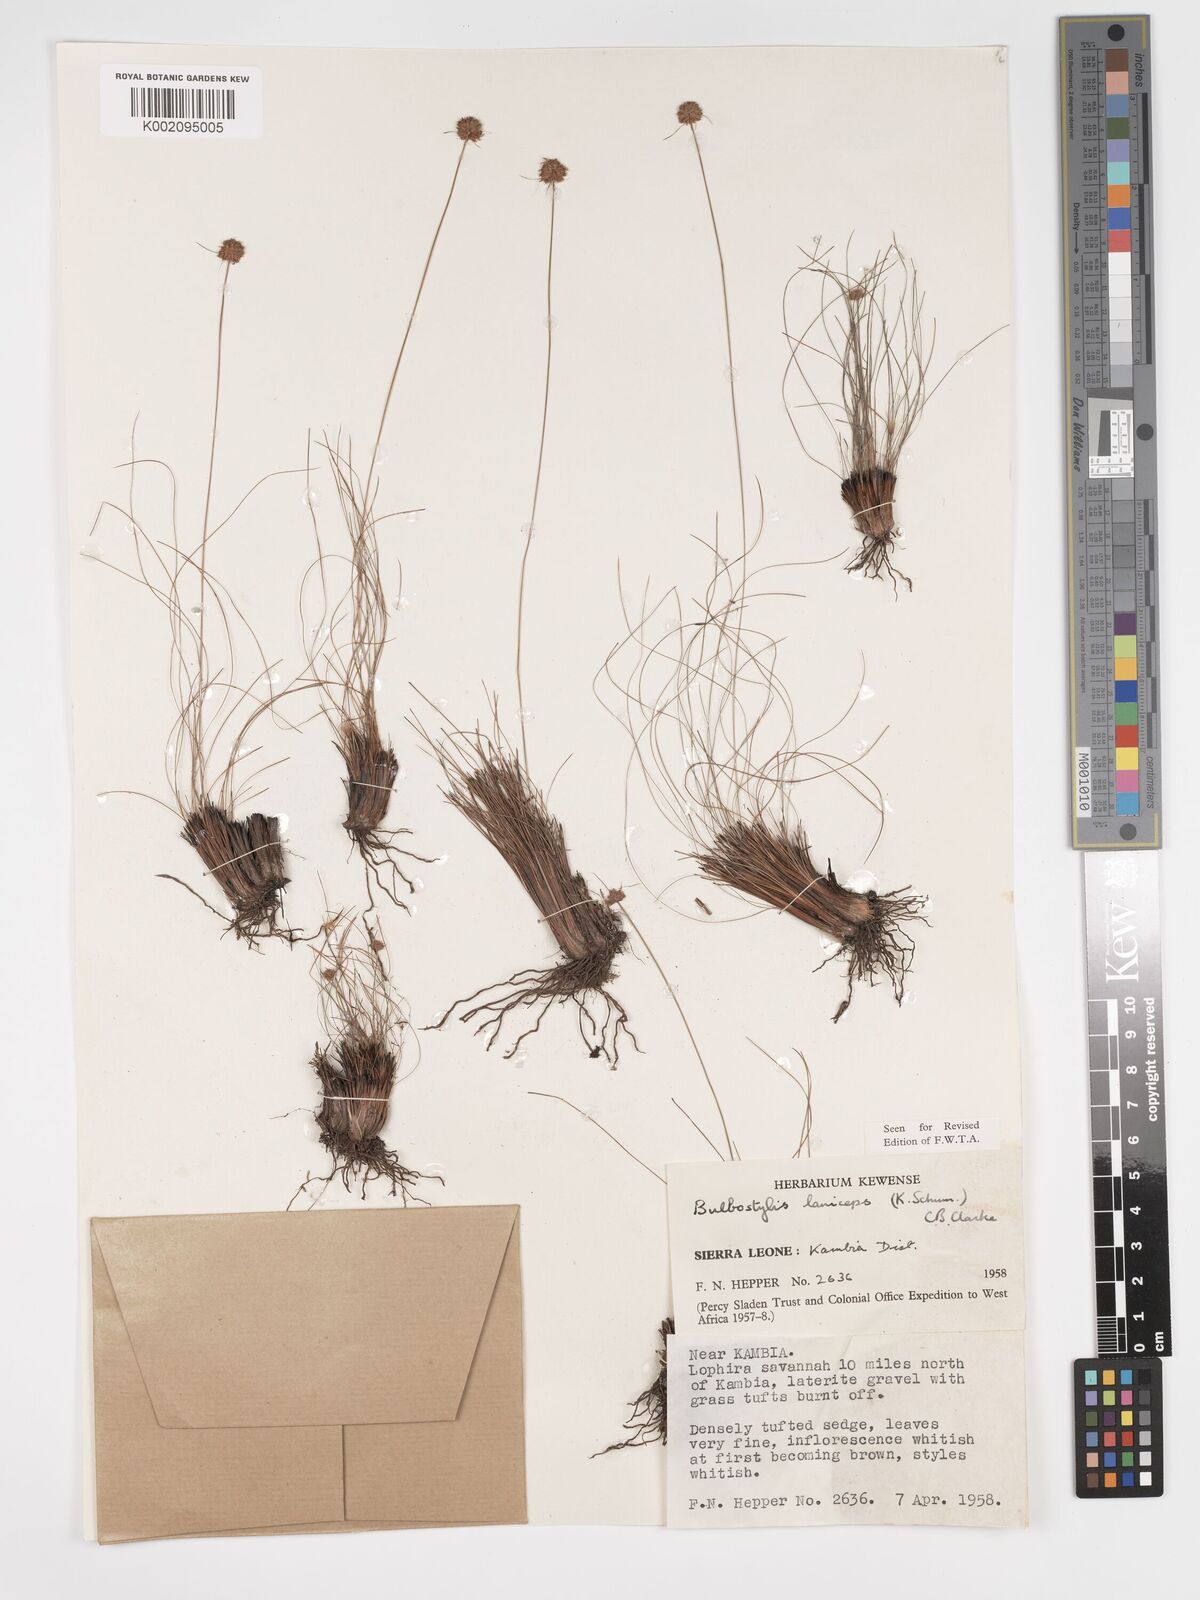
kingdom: Plantae
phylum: Tracheophyta
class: Liliopsida
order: Poales
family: Cyperaceae
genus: Bulbostylis
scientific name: Bulbostylis laniceps
